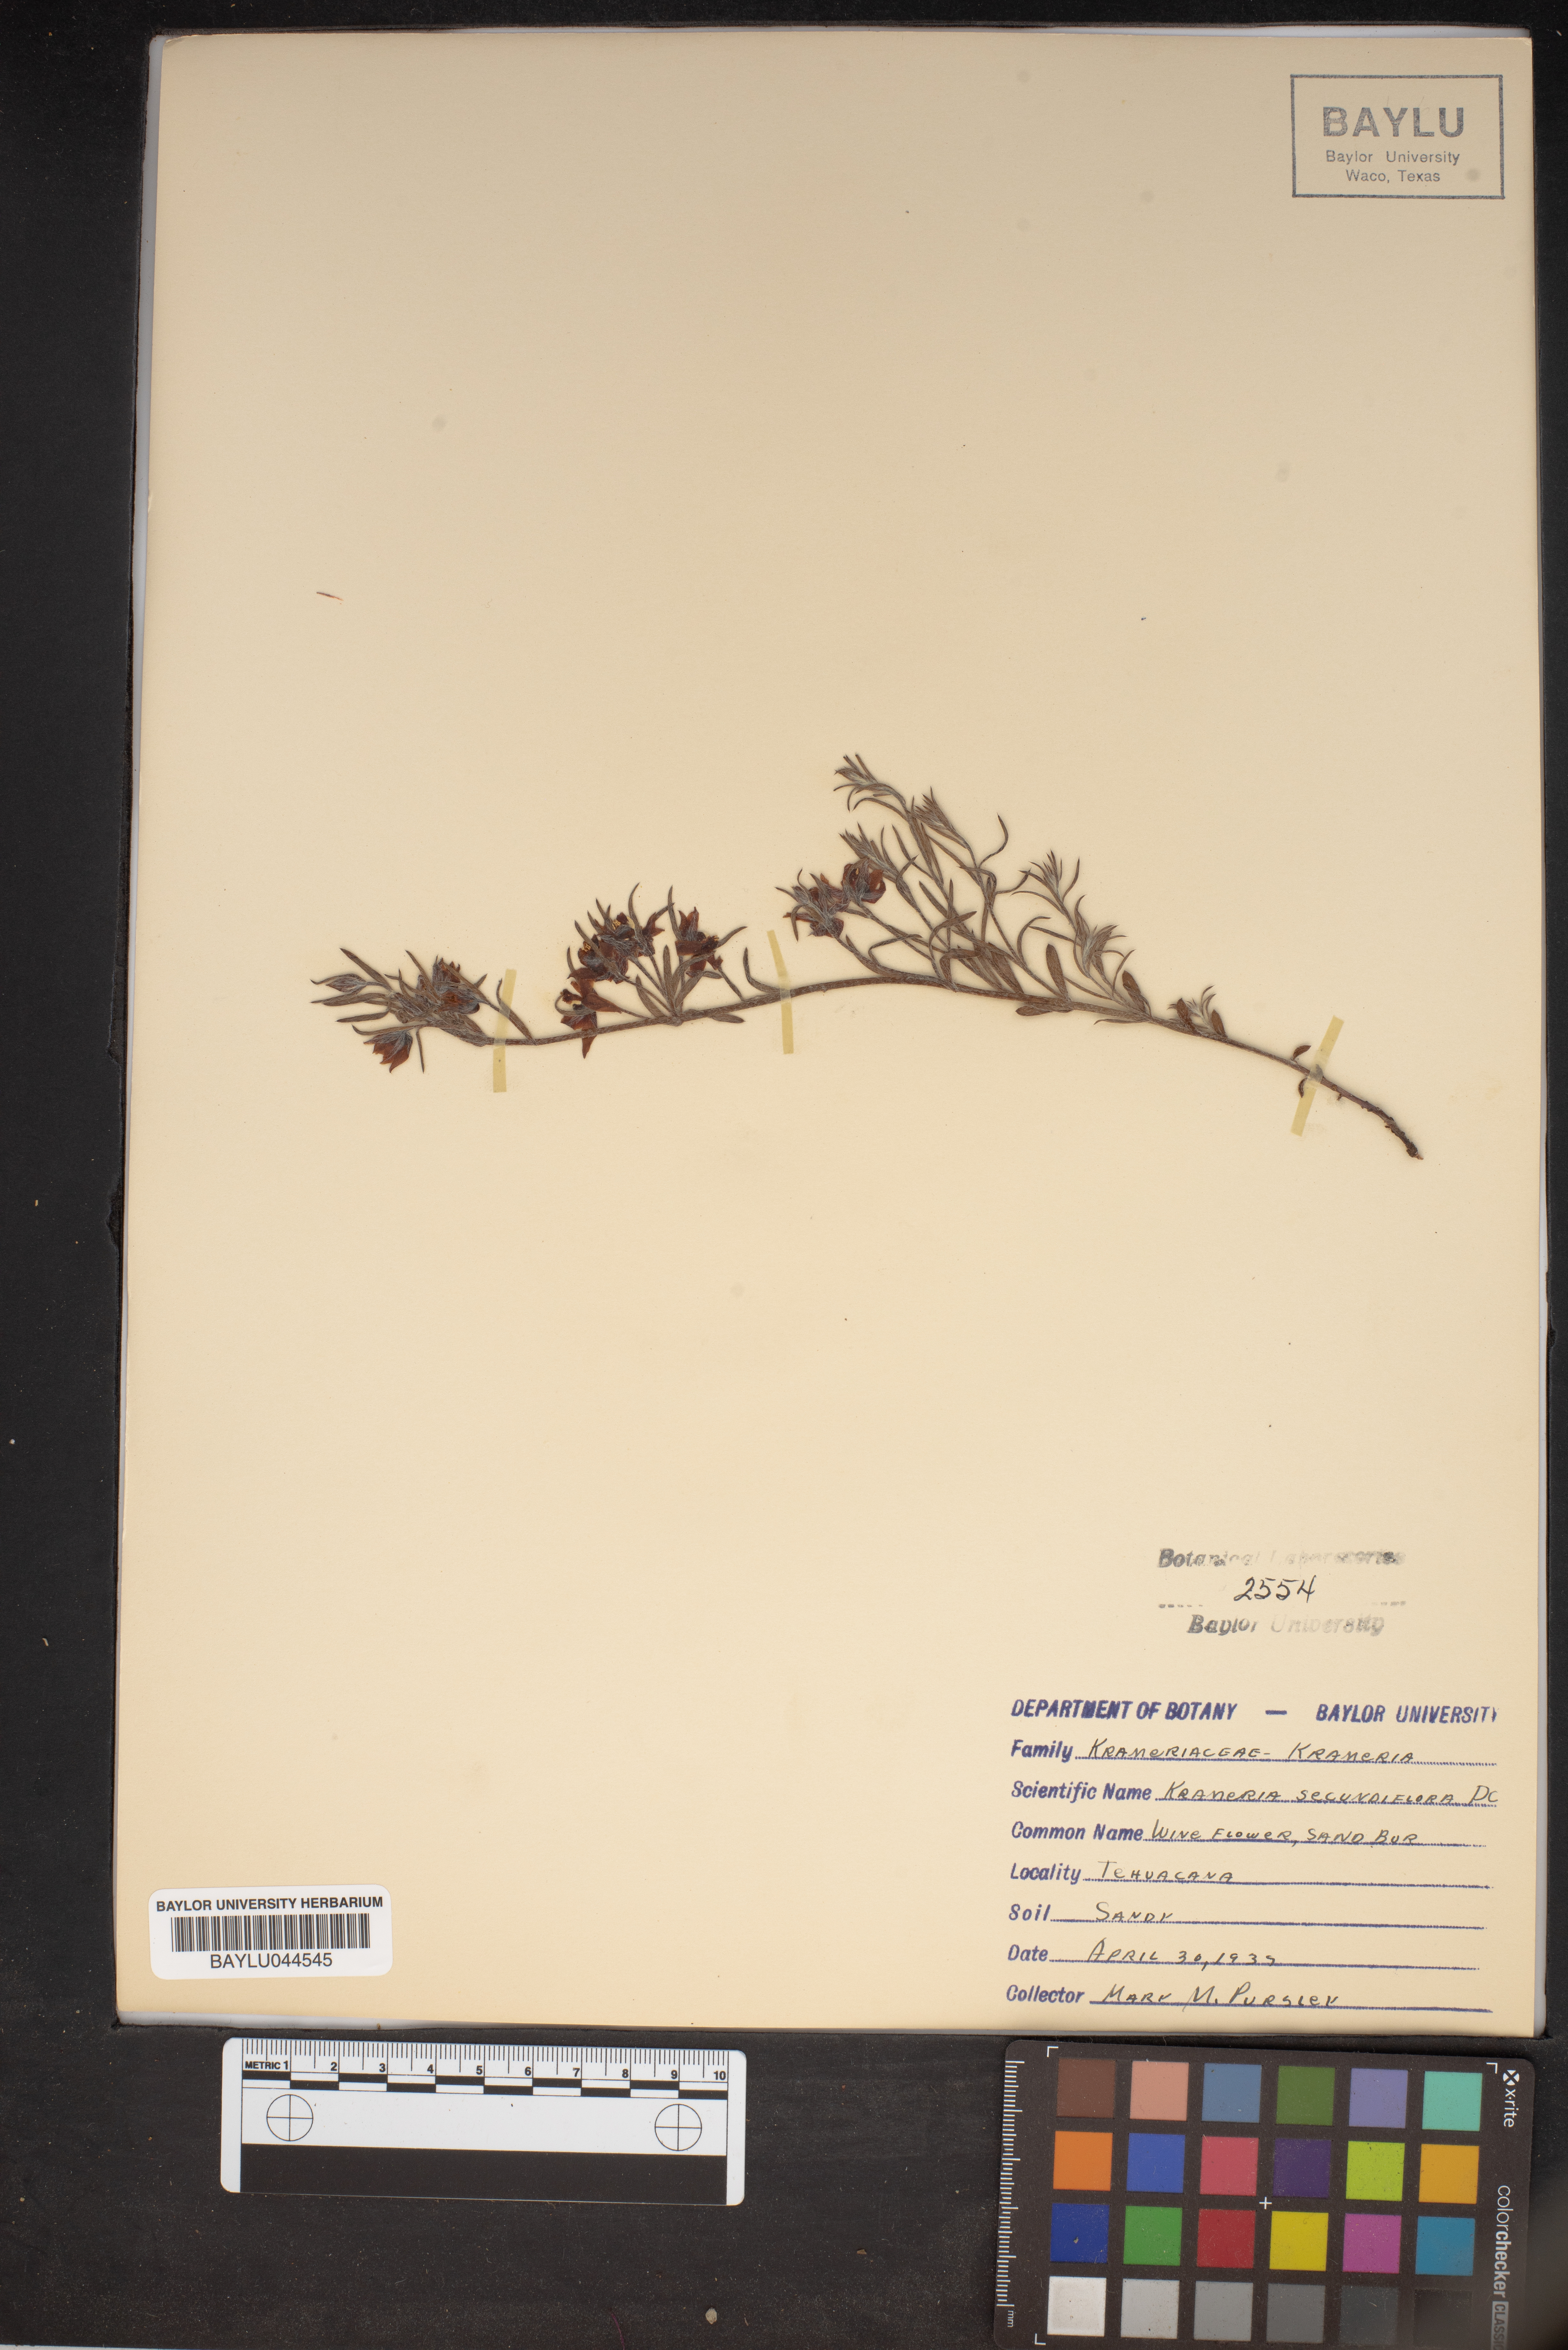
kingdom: Plantae
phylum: Tracheophyta
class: Magnoliopsida
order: Zygophyllales
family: Krameriaceae
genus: Krameria
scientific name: Krameria secundiflora
